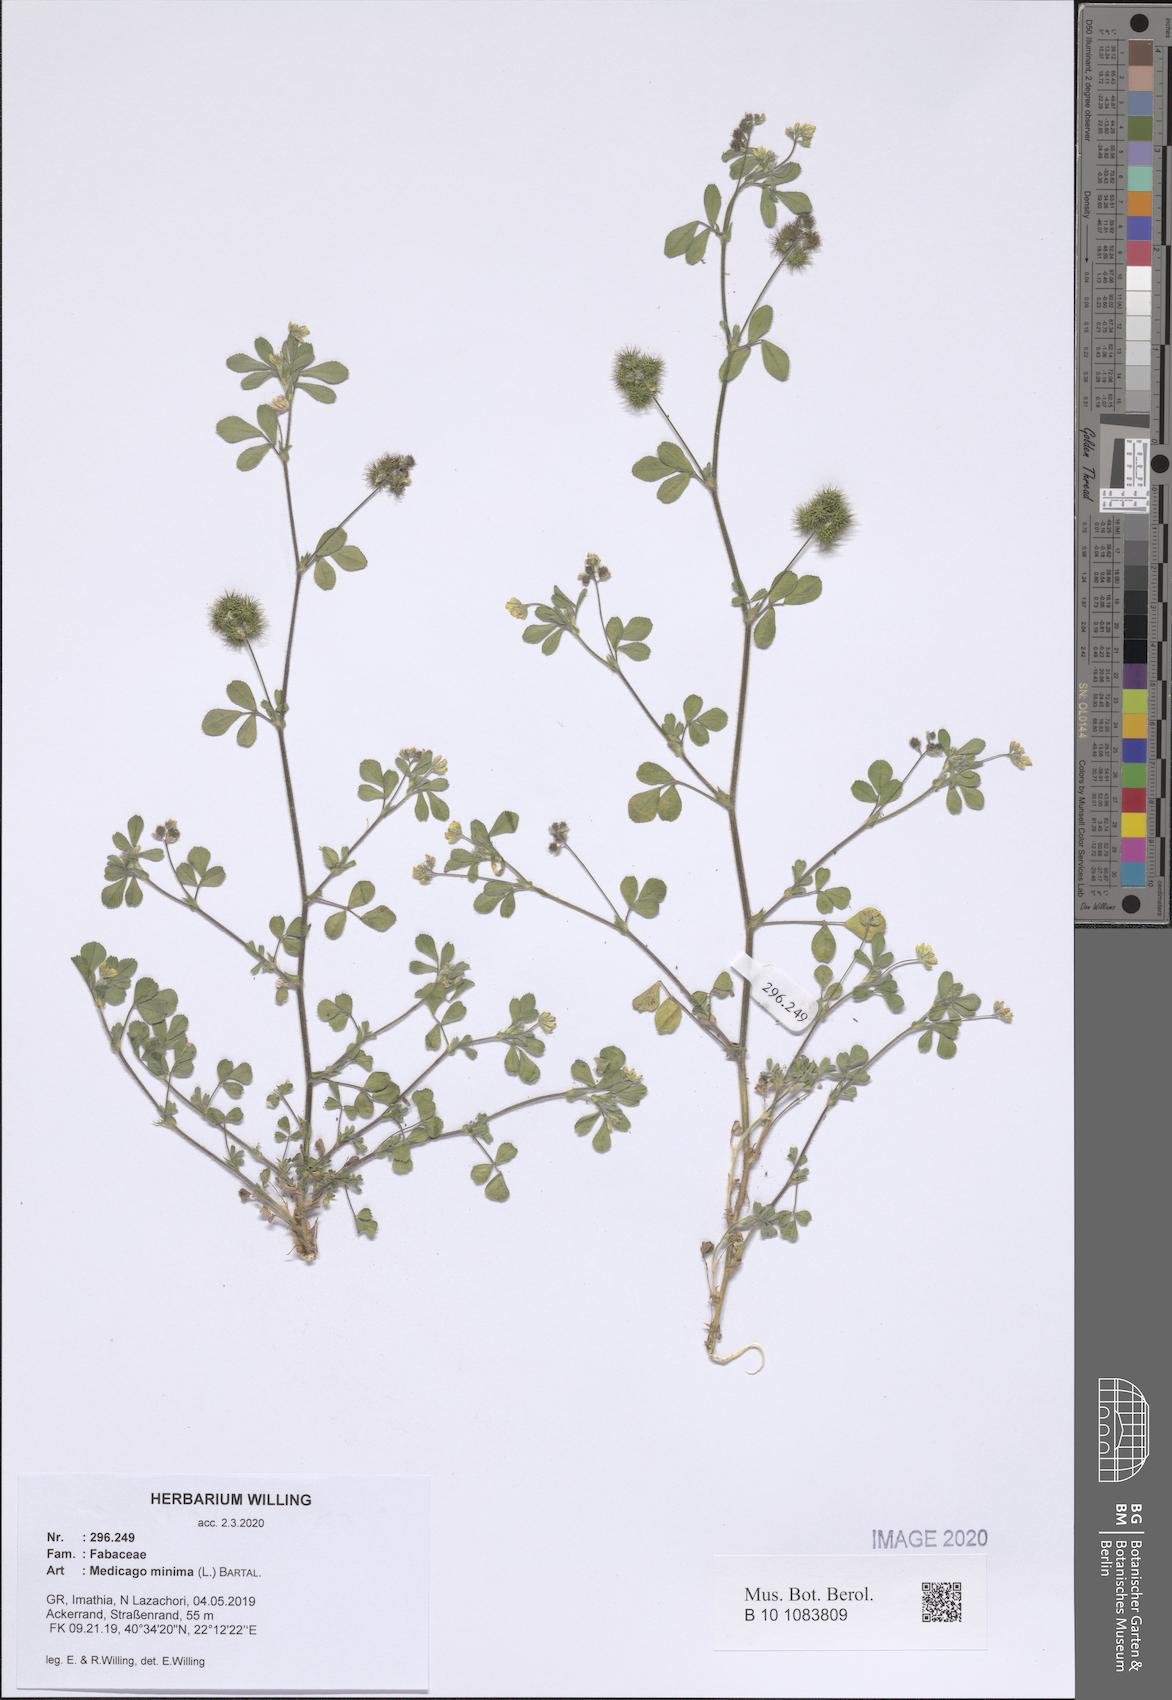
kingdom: Plantae
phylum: Tracheophyta
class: Magnoliopsida
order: Fabales
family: Fabaceae
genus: Medicago
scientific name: Medicago minima
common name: Little bur-clover
